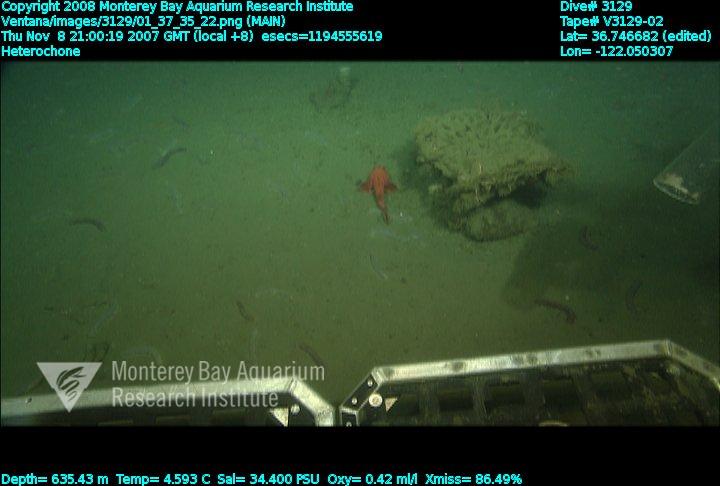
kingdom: Animalia
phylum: Porifera
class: Hexactinellida
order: Sceptrulophora
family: Aphrocallistidae
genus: Heterochone
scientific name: Heterochone
